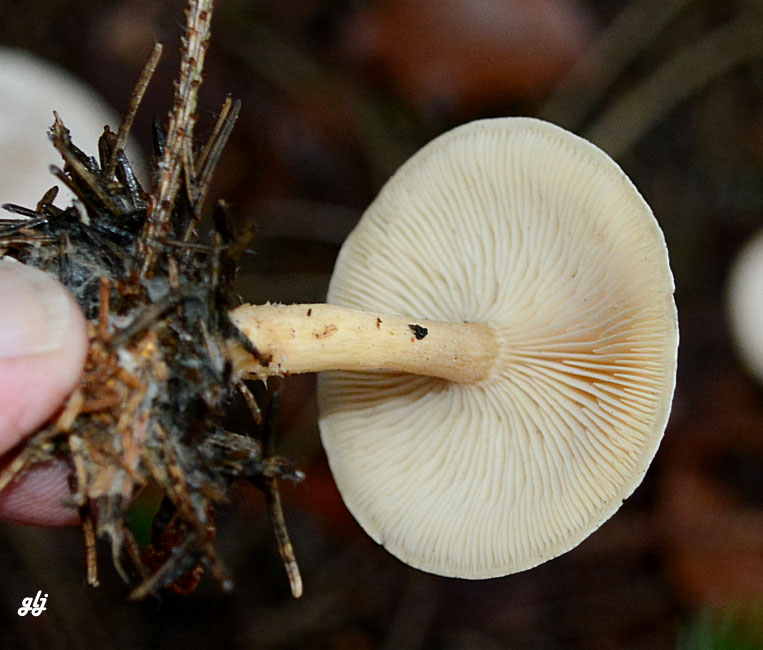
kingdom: Fungi
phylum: Basidiomycota
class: Agaricomycetes
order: Agaricales
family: Tricholomataceae
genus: Clitocybe
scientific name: Clitocybe phyllophila
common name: løv-tragthat
